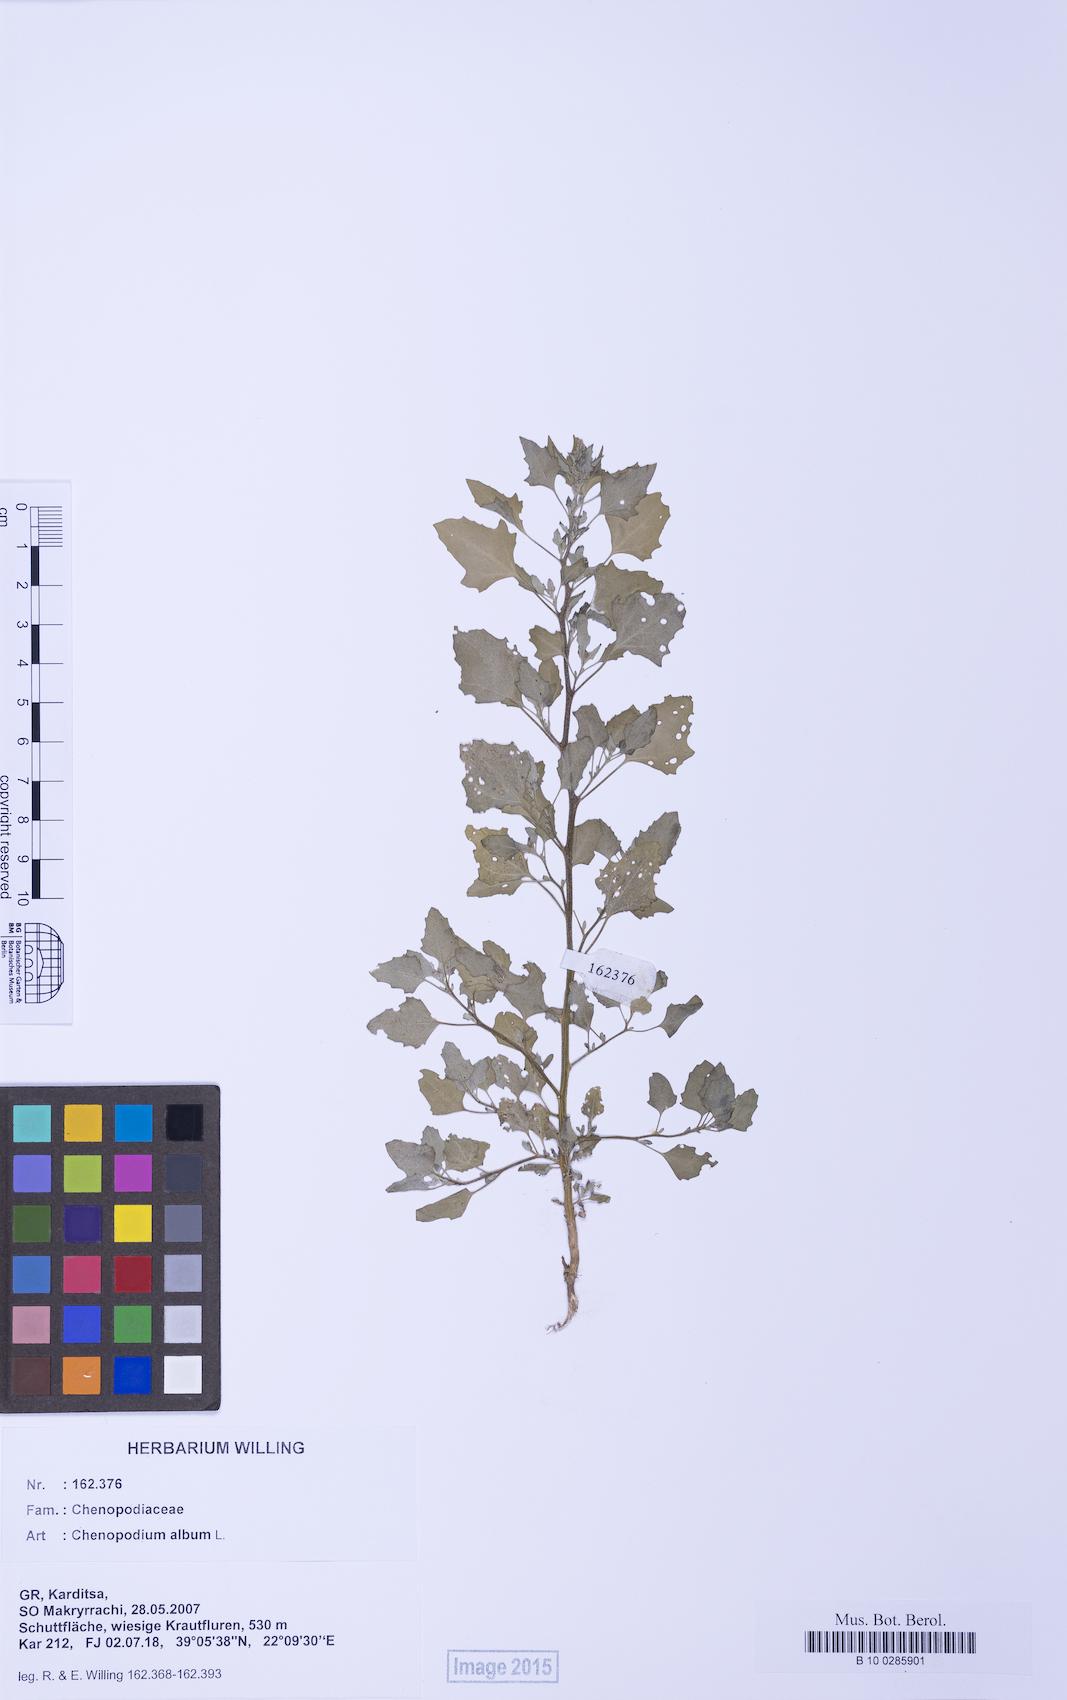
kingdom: Plantae
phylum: Tracheophyta
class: Magnoliopsida
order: Caryophyllales
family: Amaranthaceae
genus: Chenopodium
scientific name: Chenopodium album
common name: Fat-hen
